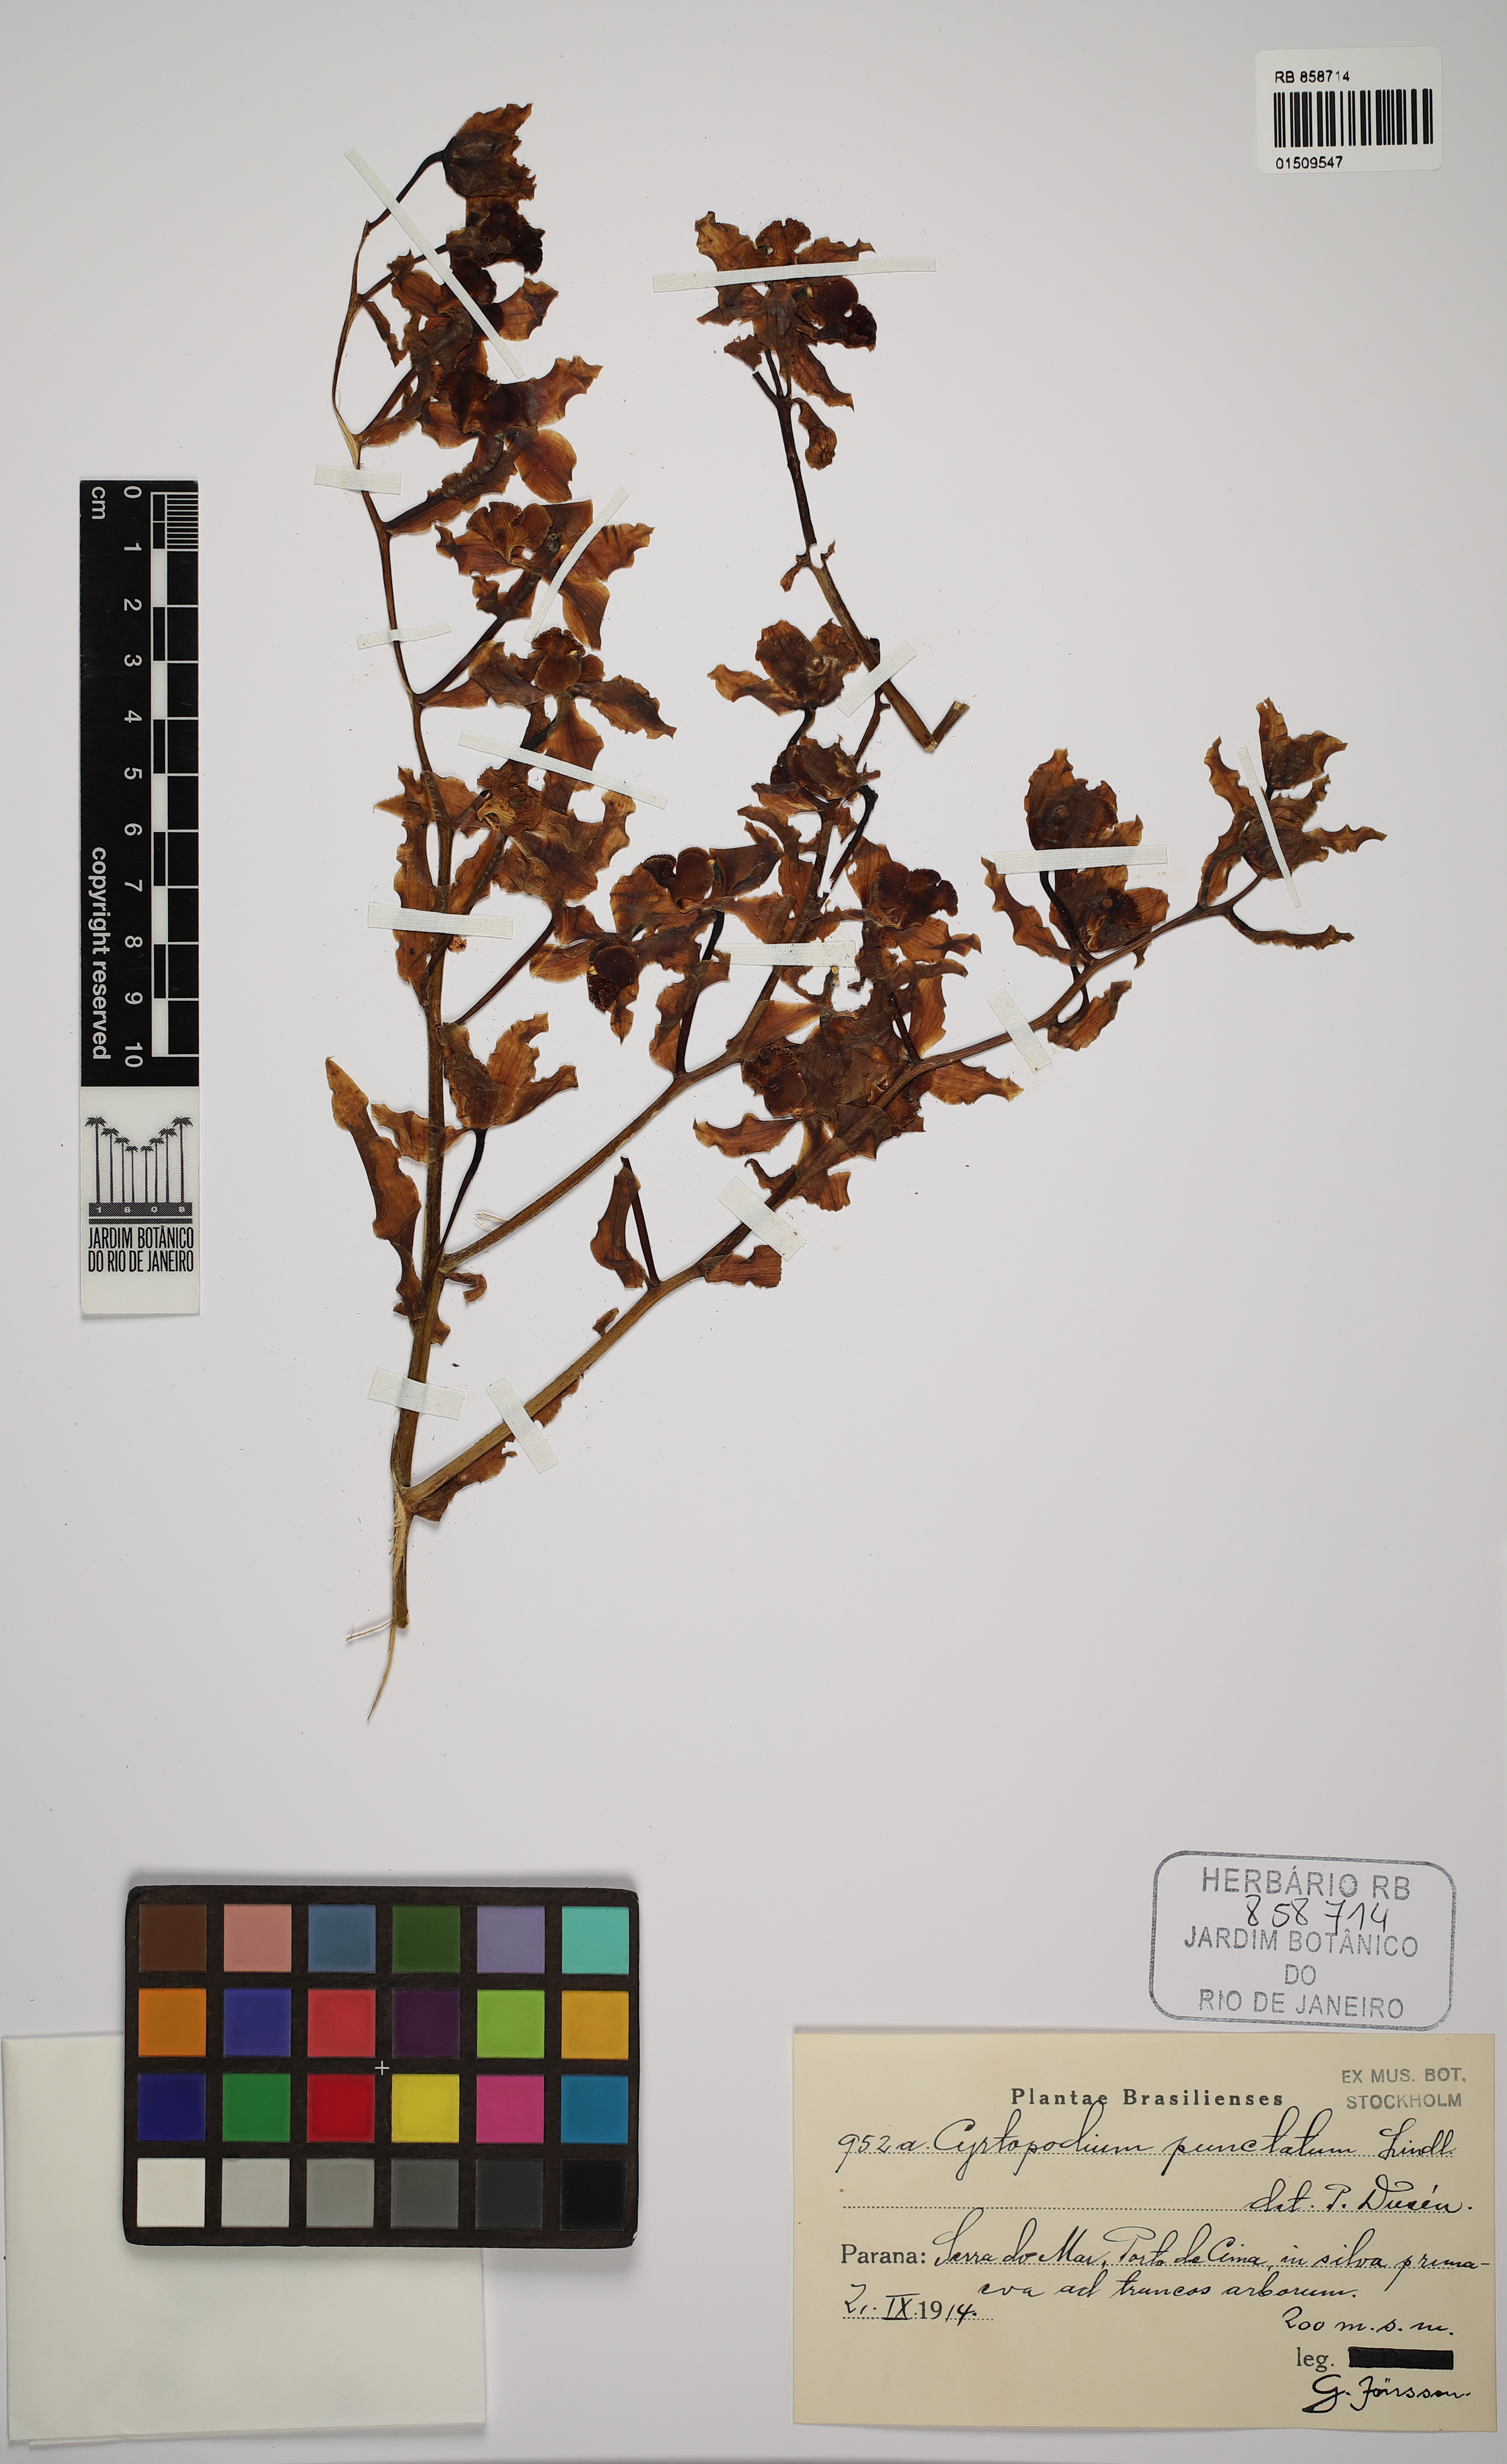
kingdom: Plantae
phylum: Tracheophyta
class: Liliopsida
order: Asparagales
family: Orchidaceae
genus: Cyrtopodium
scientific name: Cyrtopodium punctatum
